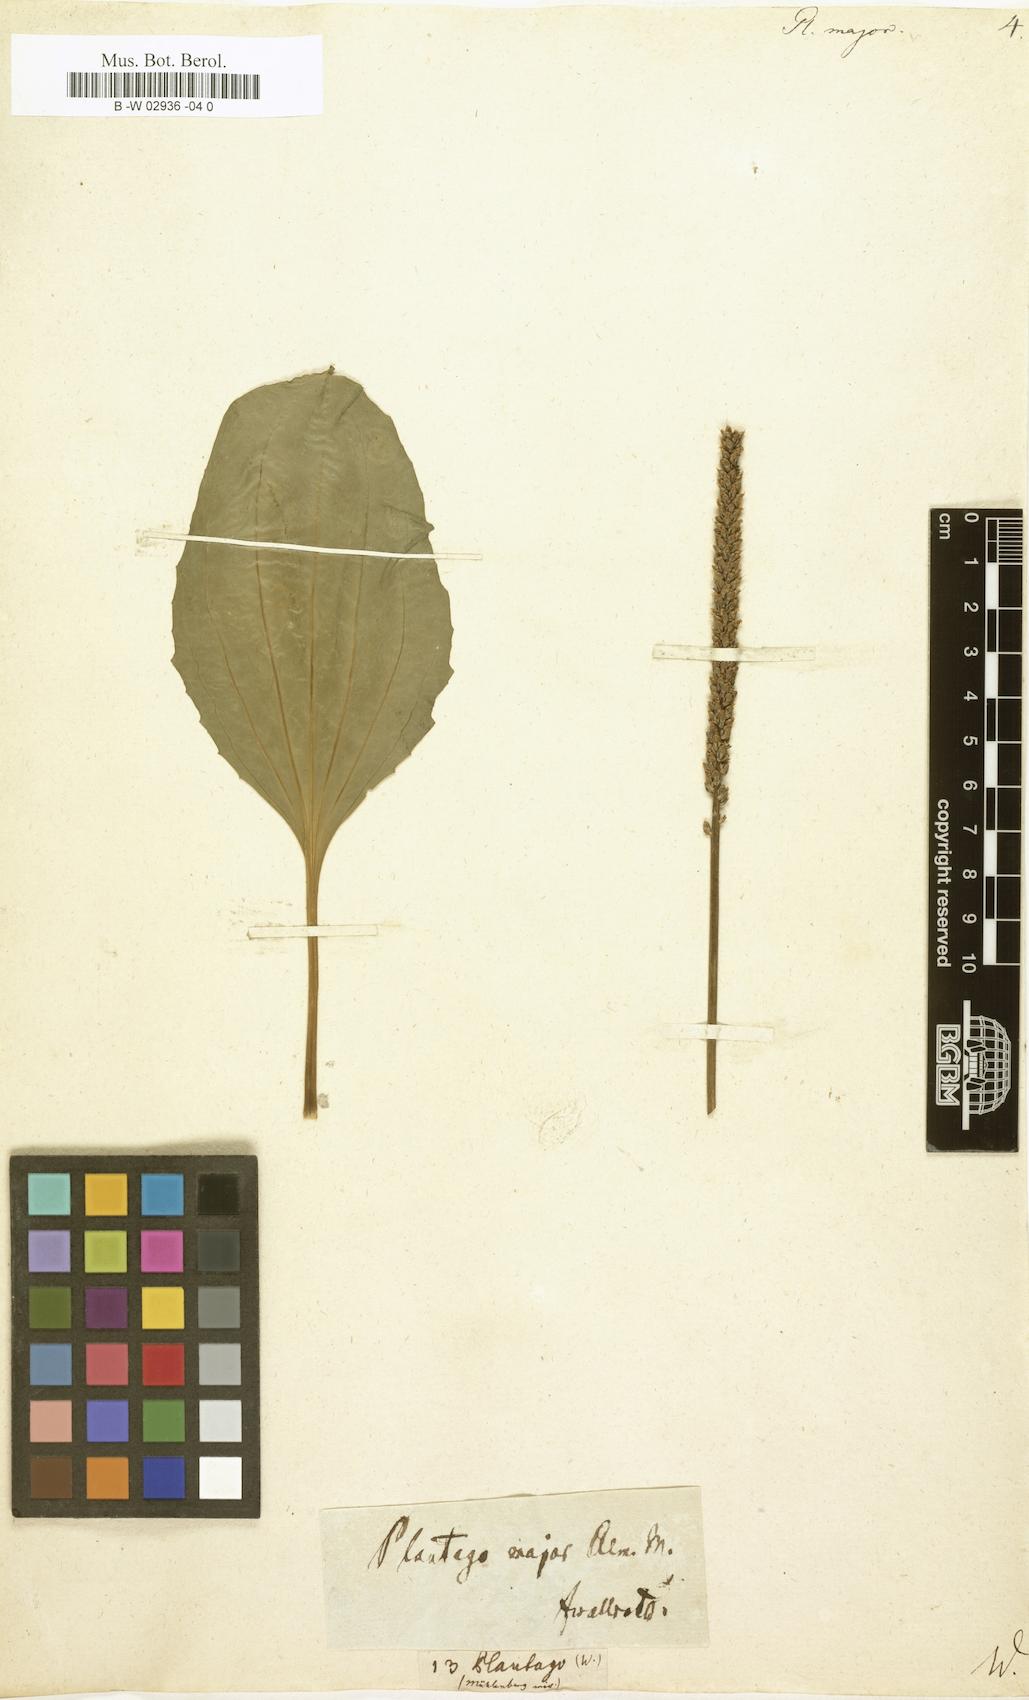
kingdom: Plantae
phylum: Tracheophyta
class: Magnoliopsida
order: Lamiales
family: Plantaginaceae
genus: Plantago
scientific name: Plantago major
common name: Common plantain
